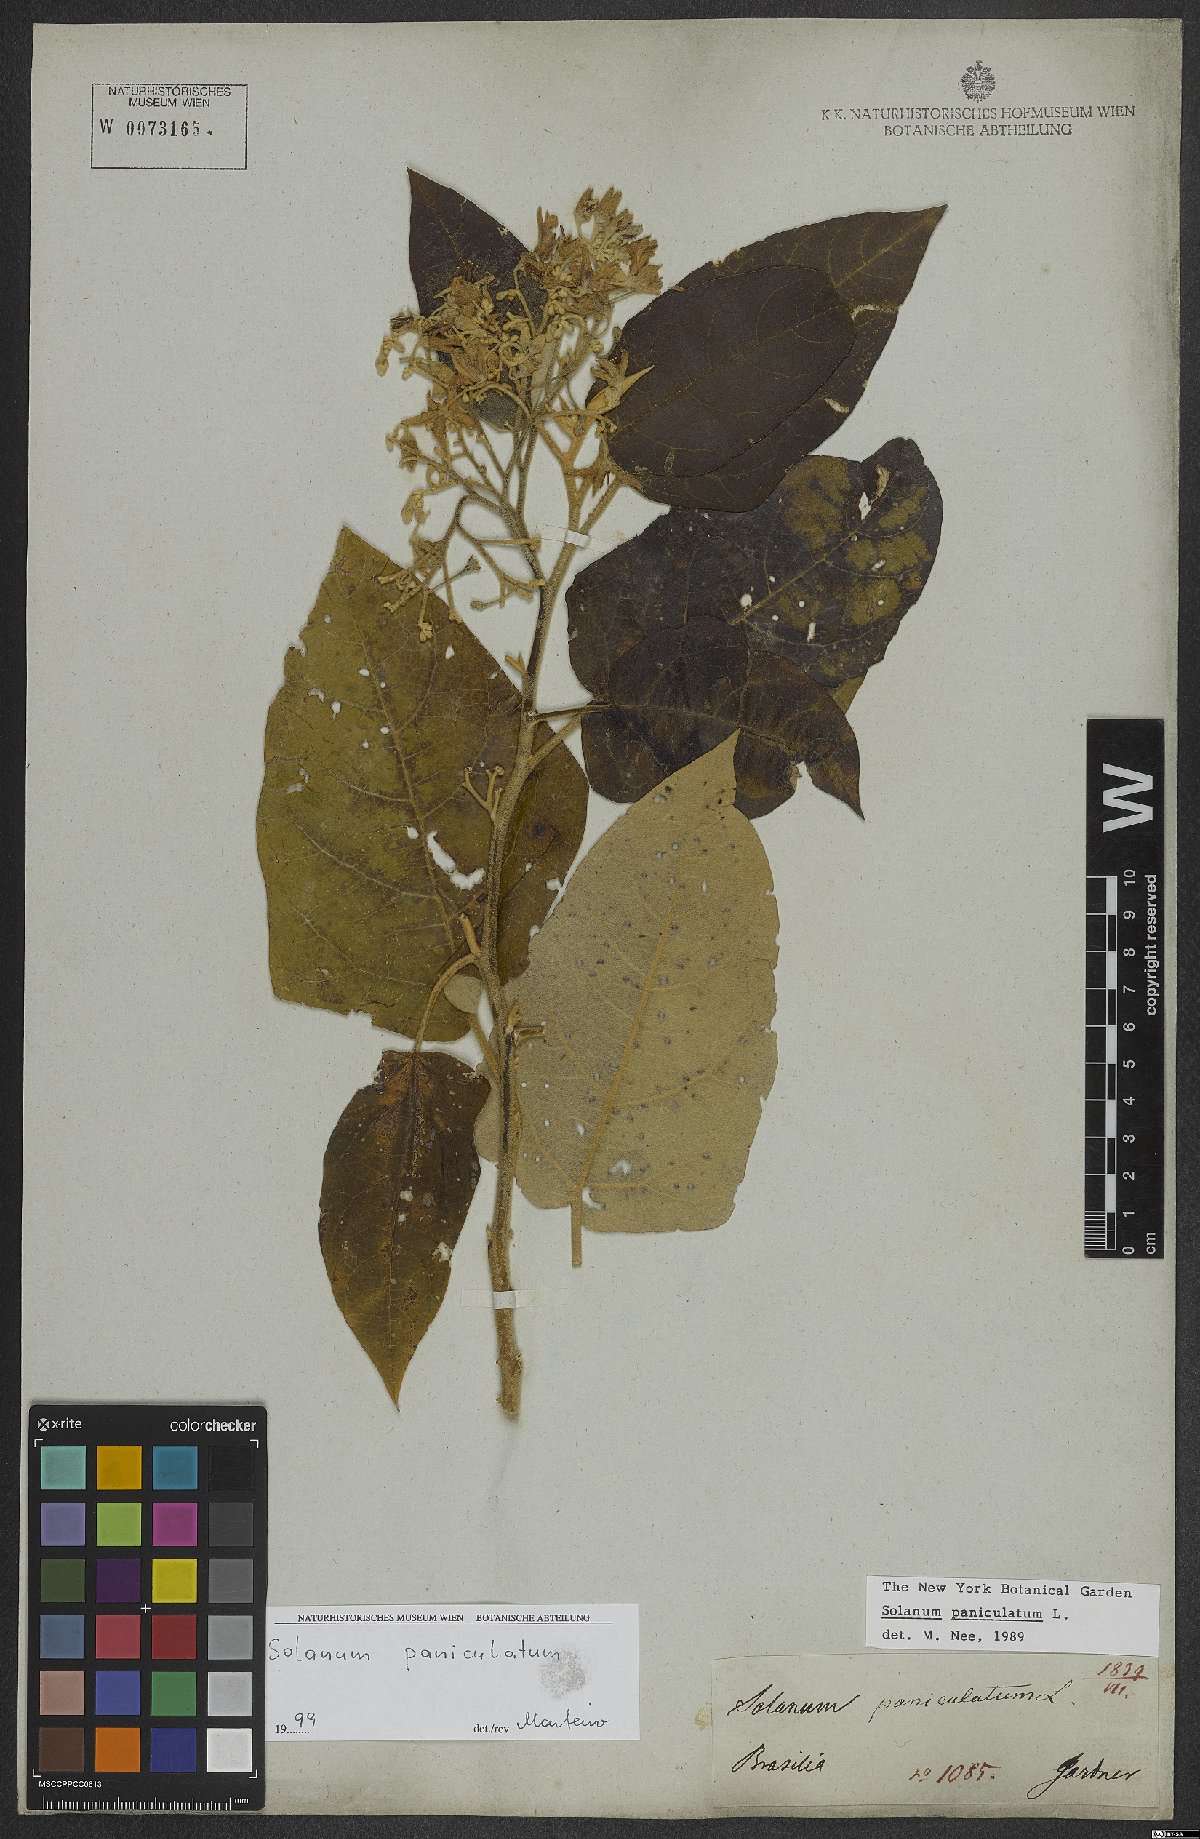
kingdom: Plantae
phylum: Tracheophyta
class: Magnoliopsida
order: Solanales
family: Solanaceae
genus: Solanum
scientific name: Solanum paniculatum
